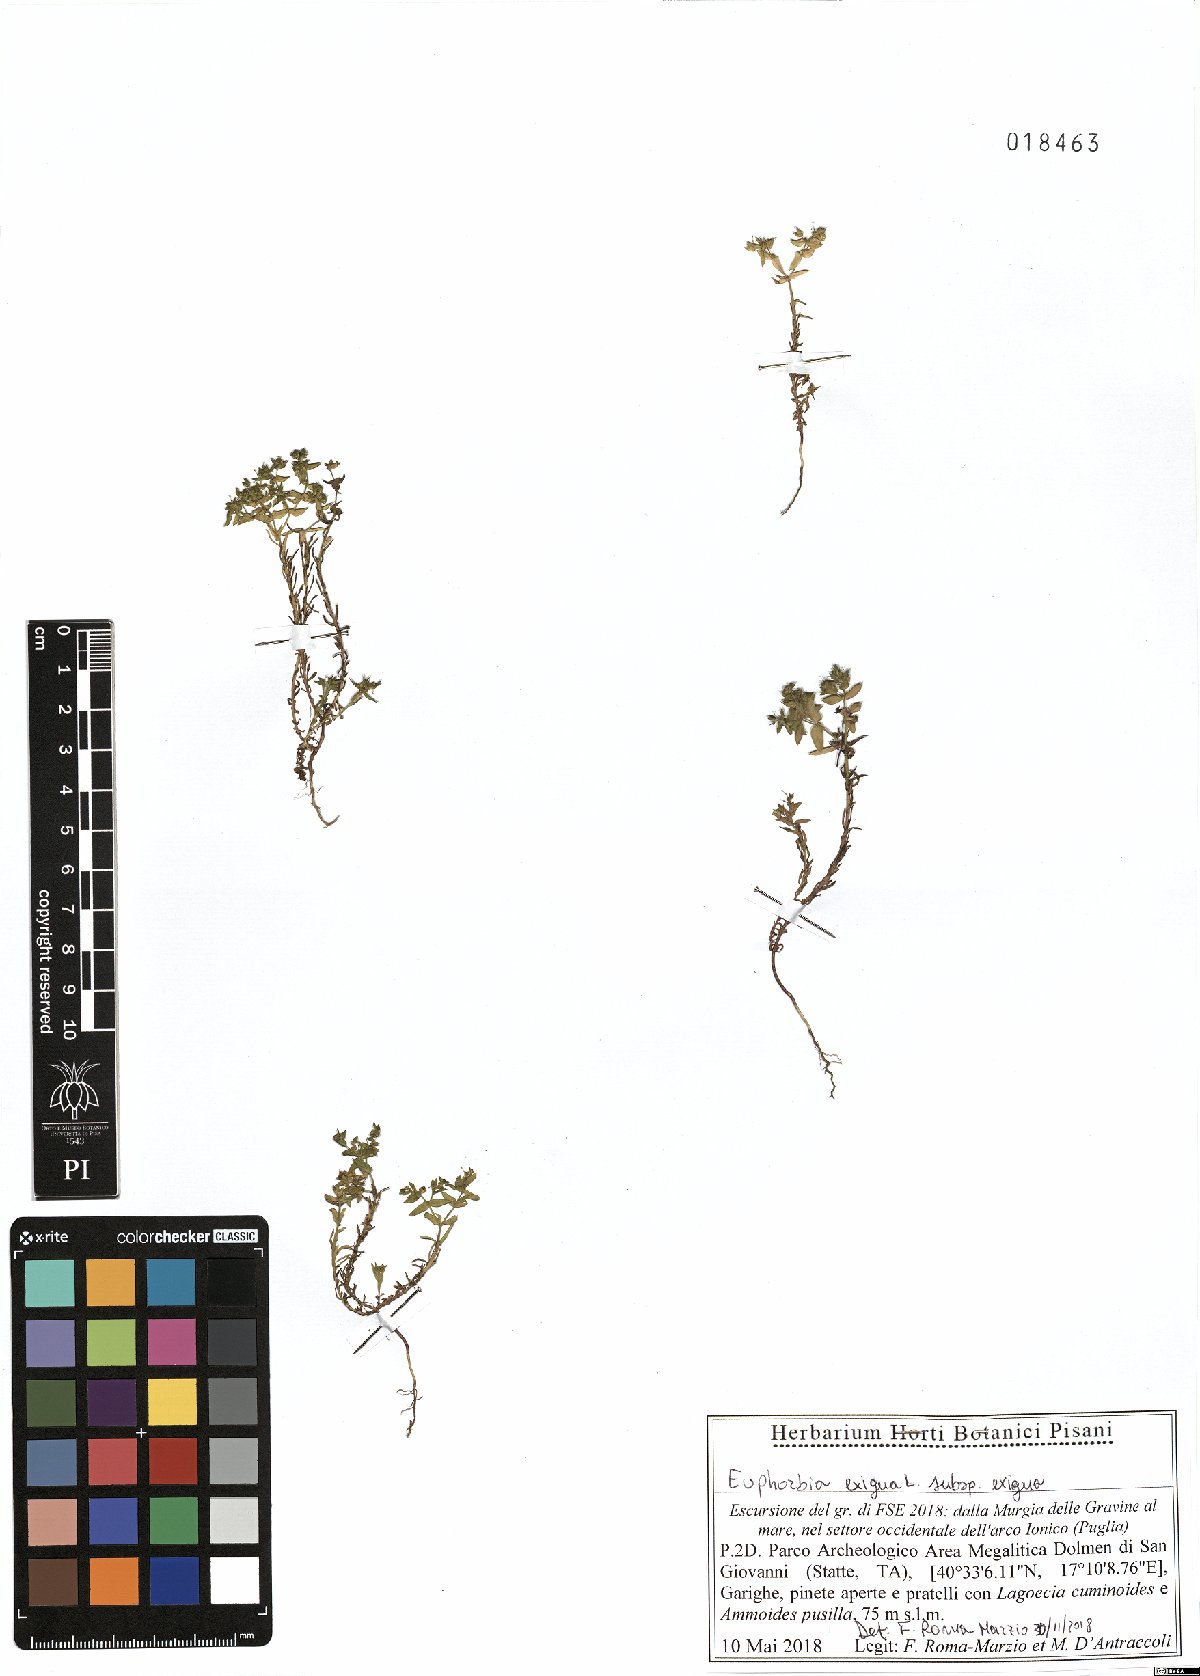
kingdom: Plantae
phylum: Tracheophyta
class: Magnoliopsida
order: Malpighiales
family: Euphorbiaceae
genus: Euphorbia
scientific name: Euphorbia exigua
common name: Dwarf spurge
